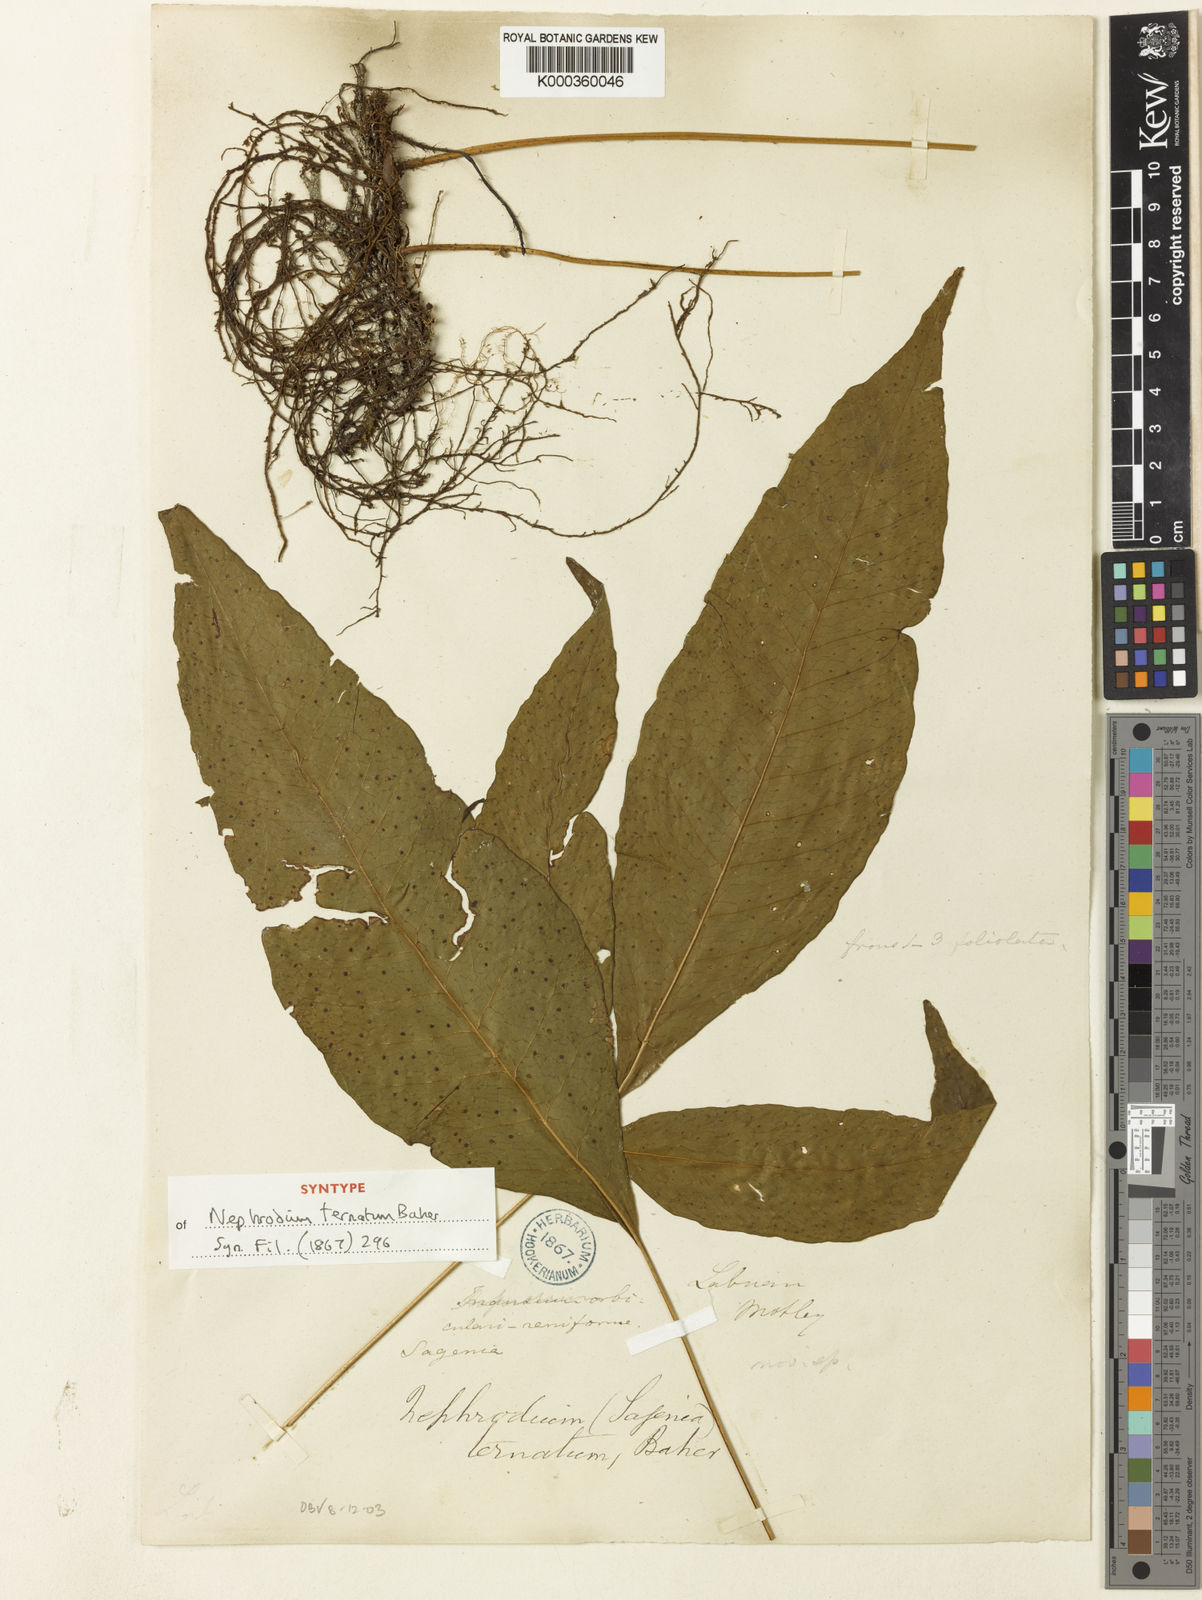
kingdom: Plantae
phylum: Tracheophyta
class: Polypodiopsida
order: Polypodiales
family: Tectariaceae
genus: Polydictyum
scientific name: Polydictyum ternatum
